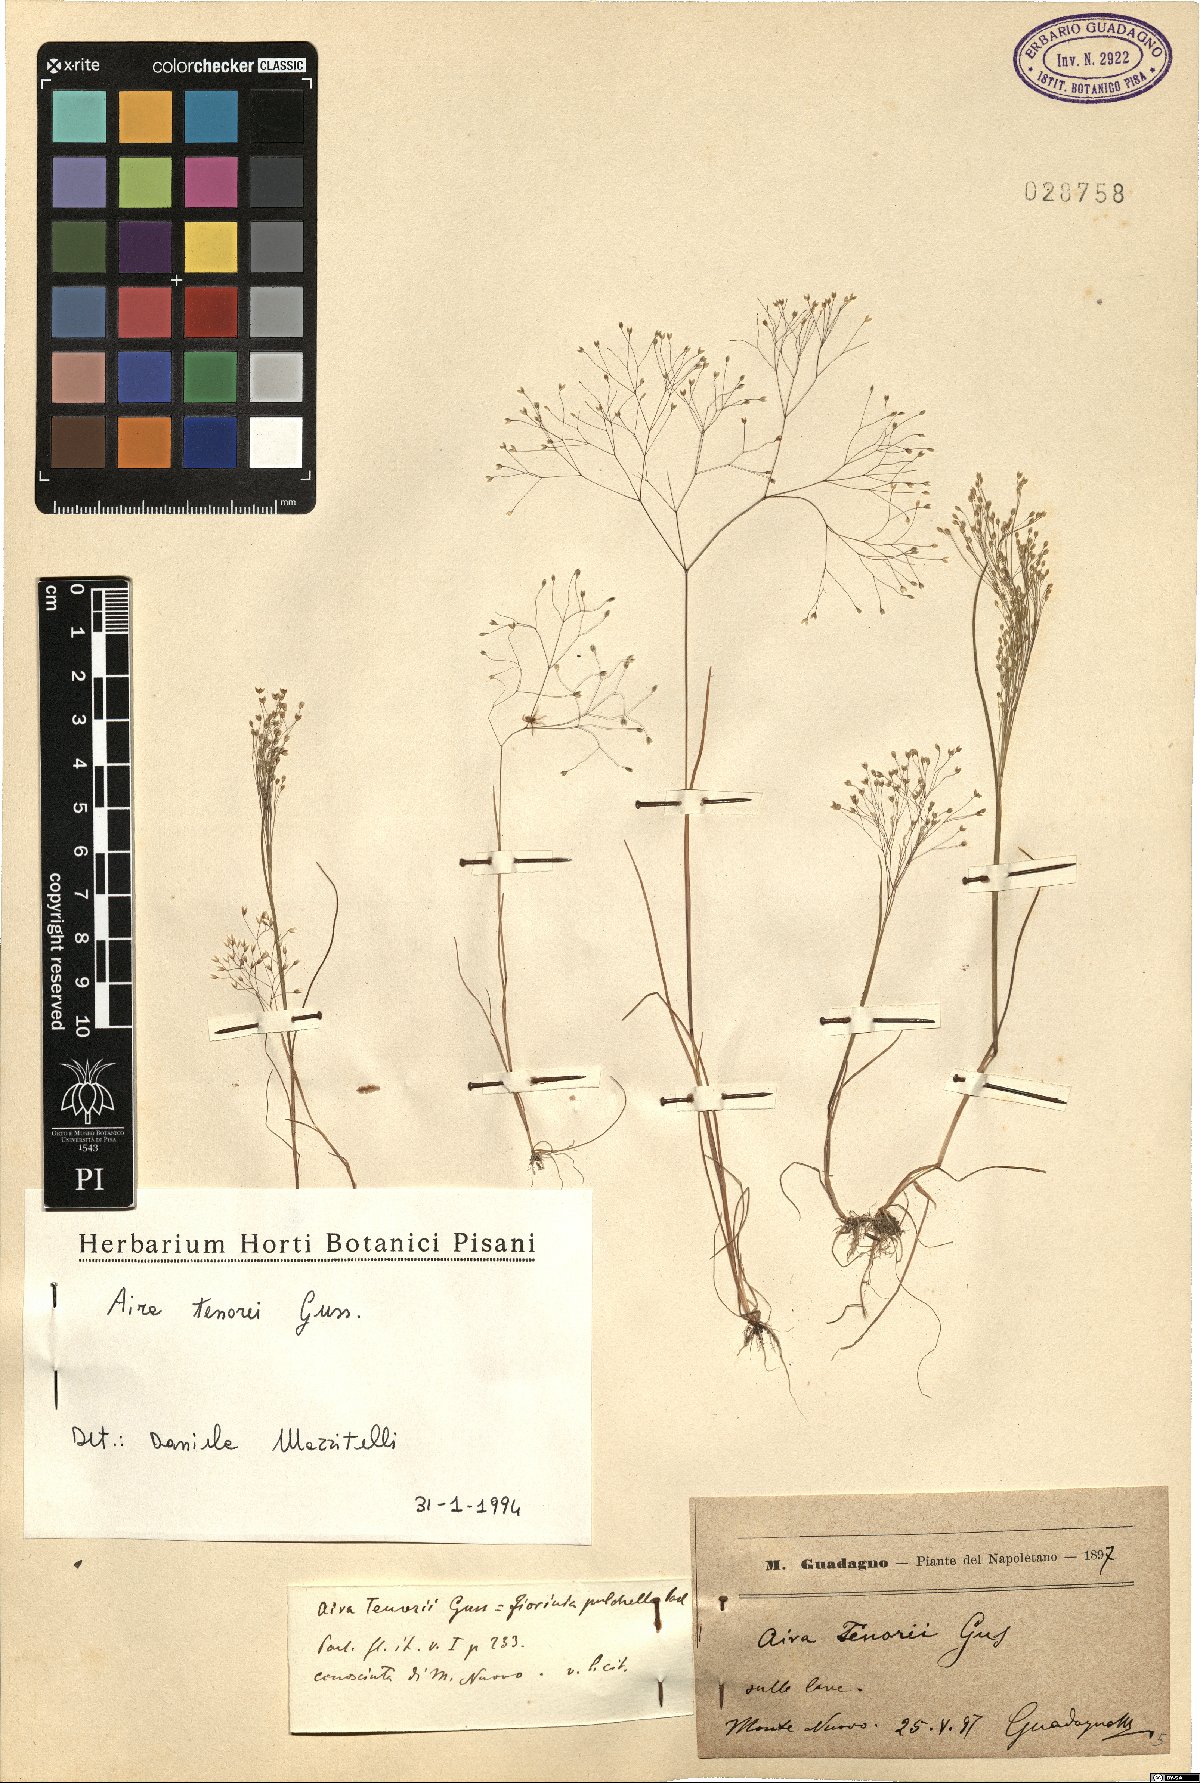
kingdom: Plantae
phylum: Tracheophyta
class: Liliopsida
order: Poales
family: Poaceae
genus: Aira
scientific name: Aira tenorei
